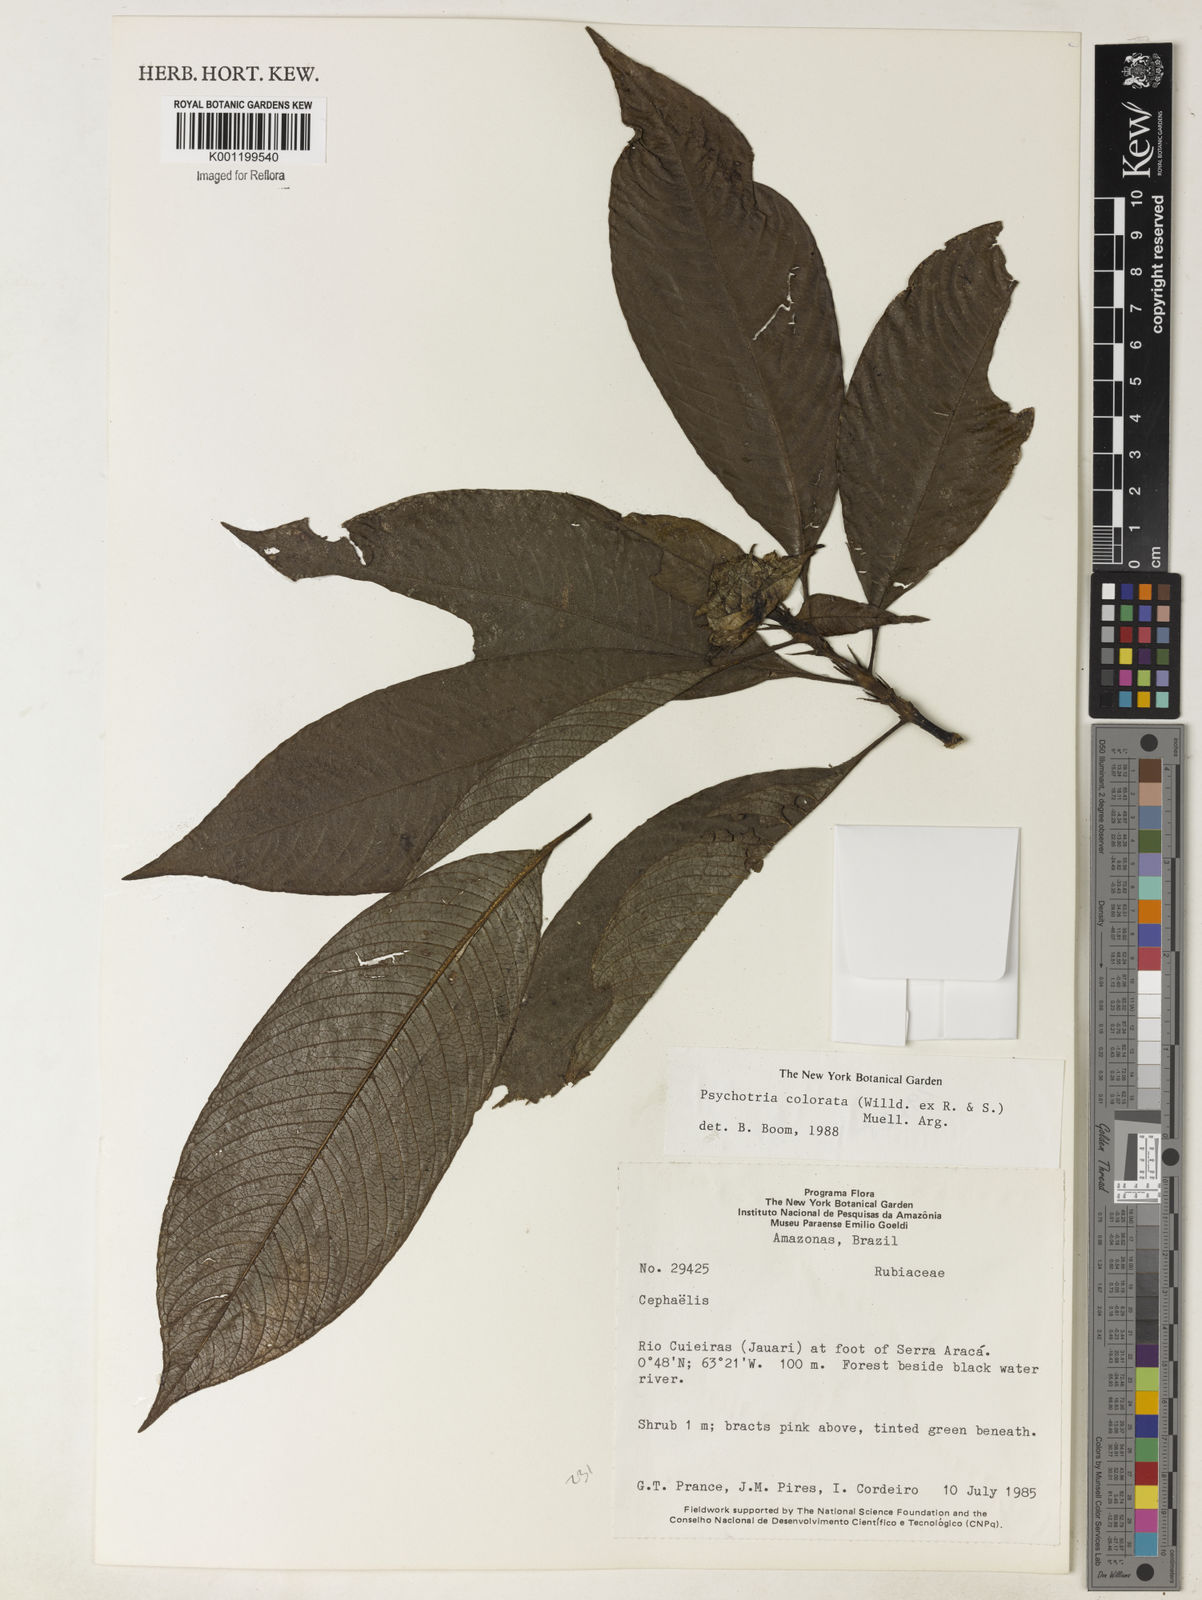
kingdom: Plantae
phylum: Tracheophyta
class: Magnoliopsida
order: Gentianales
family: Rubiaceae
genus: Psychotria
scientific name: Psychotria
